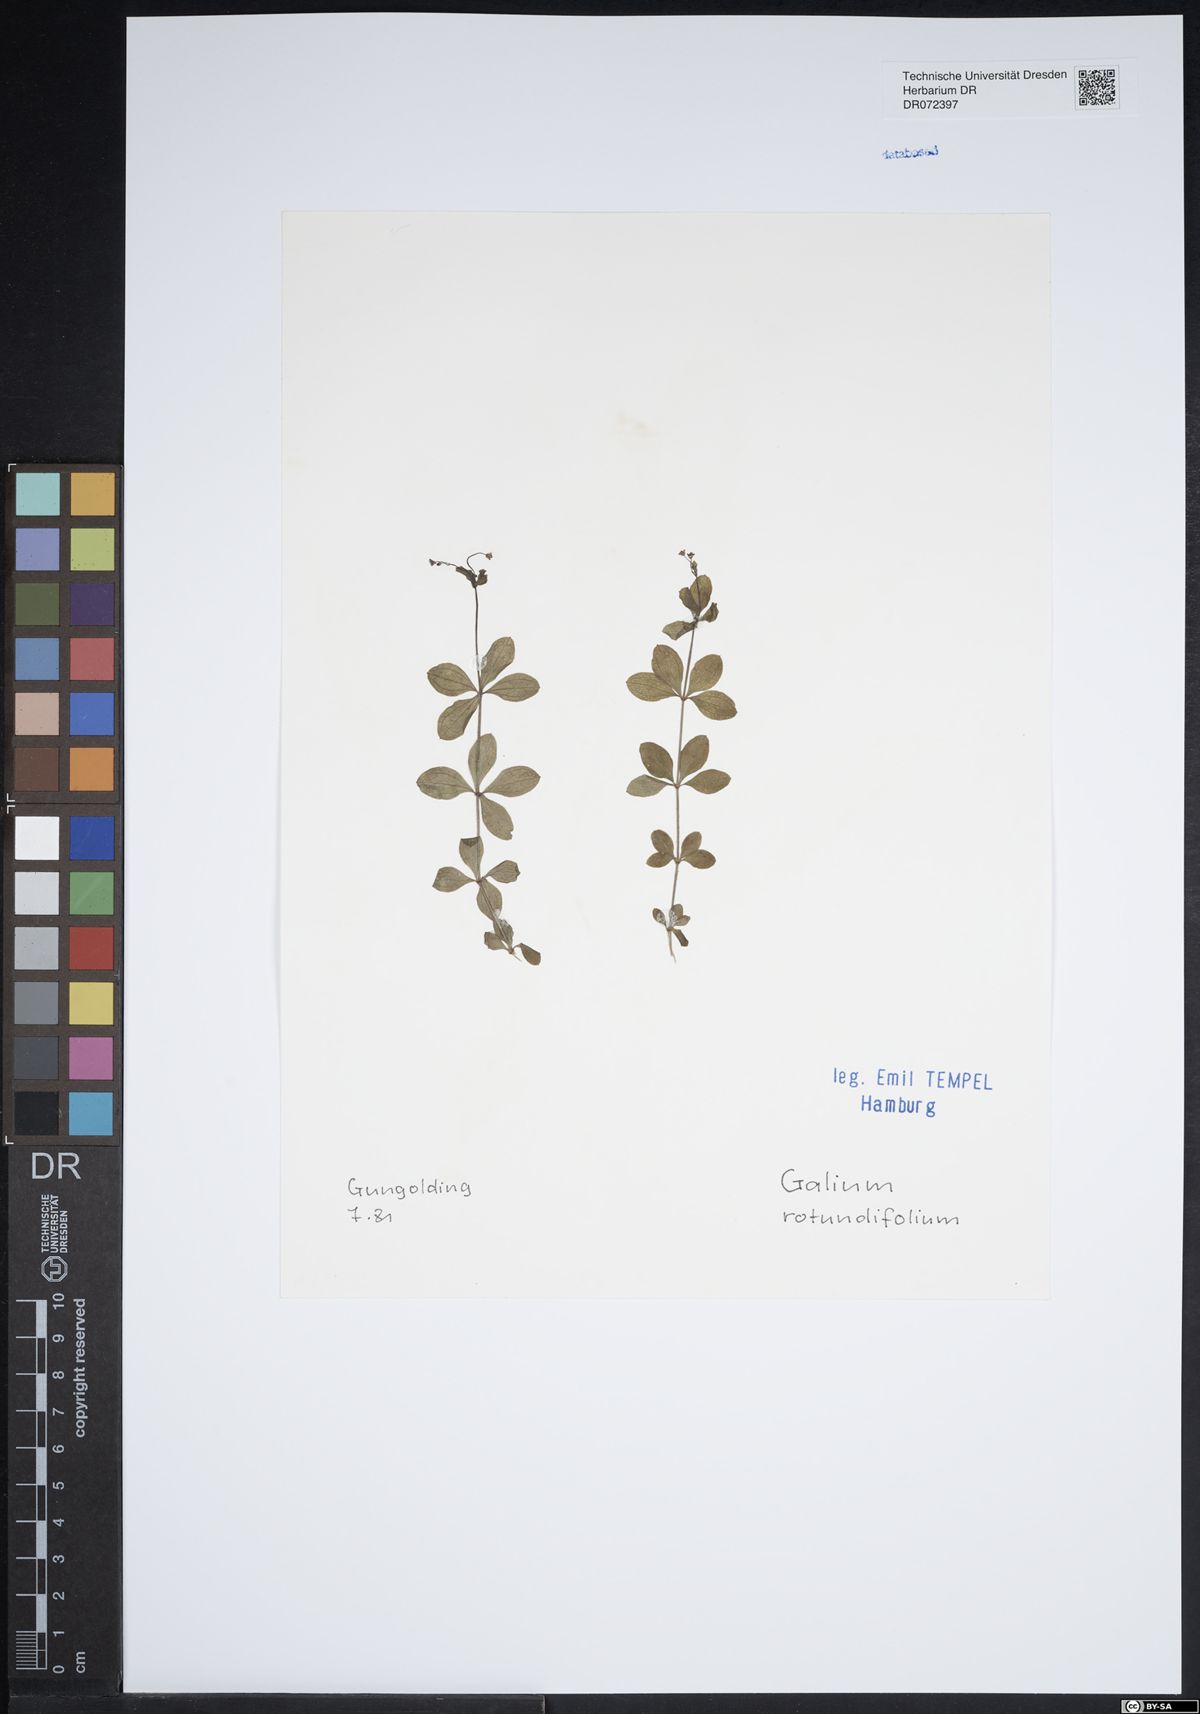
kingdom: Plantae
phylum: Tracheophyta
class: Magnoliopsida
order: Gentianales
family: Rubiaceae
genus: Galium
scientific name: Galium rotundifolium
